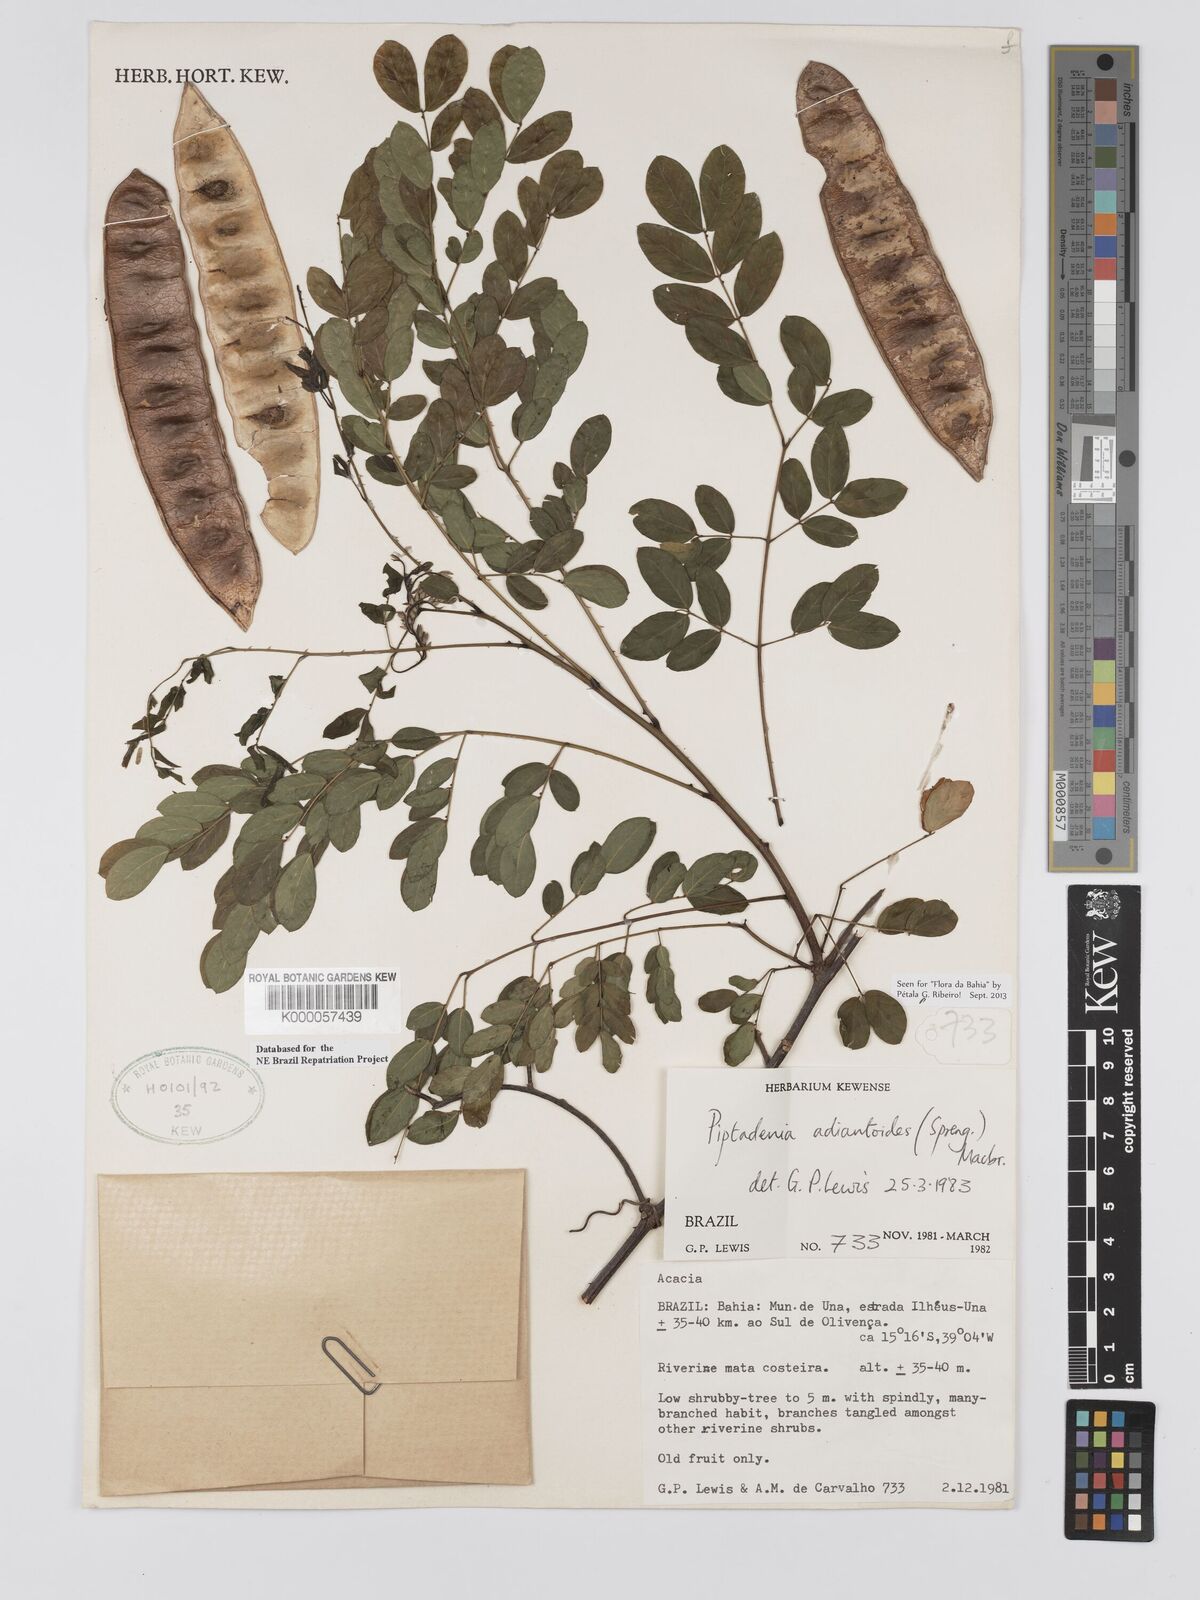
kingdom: Plantae
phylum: Tracheophyta
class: Magnoliopsida
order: Fabales
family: Fabaceae
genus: Piptadenia
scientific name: Piptadenia adiantoides
